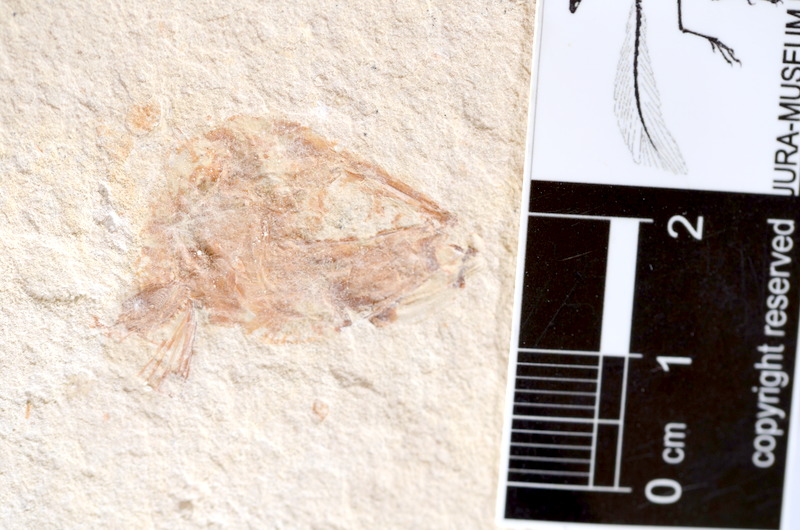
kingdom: Animalia
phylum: Chordata
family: Ascalaboidae
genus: Tharsis
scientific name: Tharsis dubius
